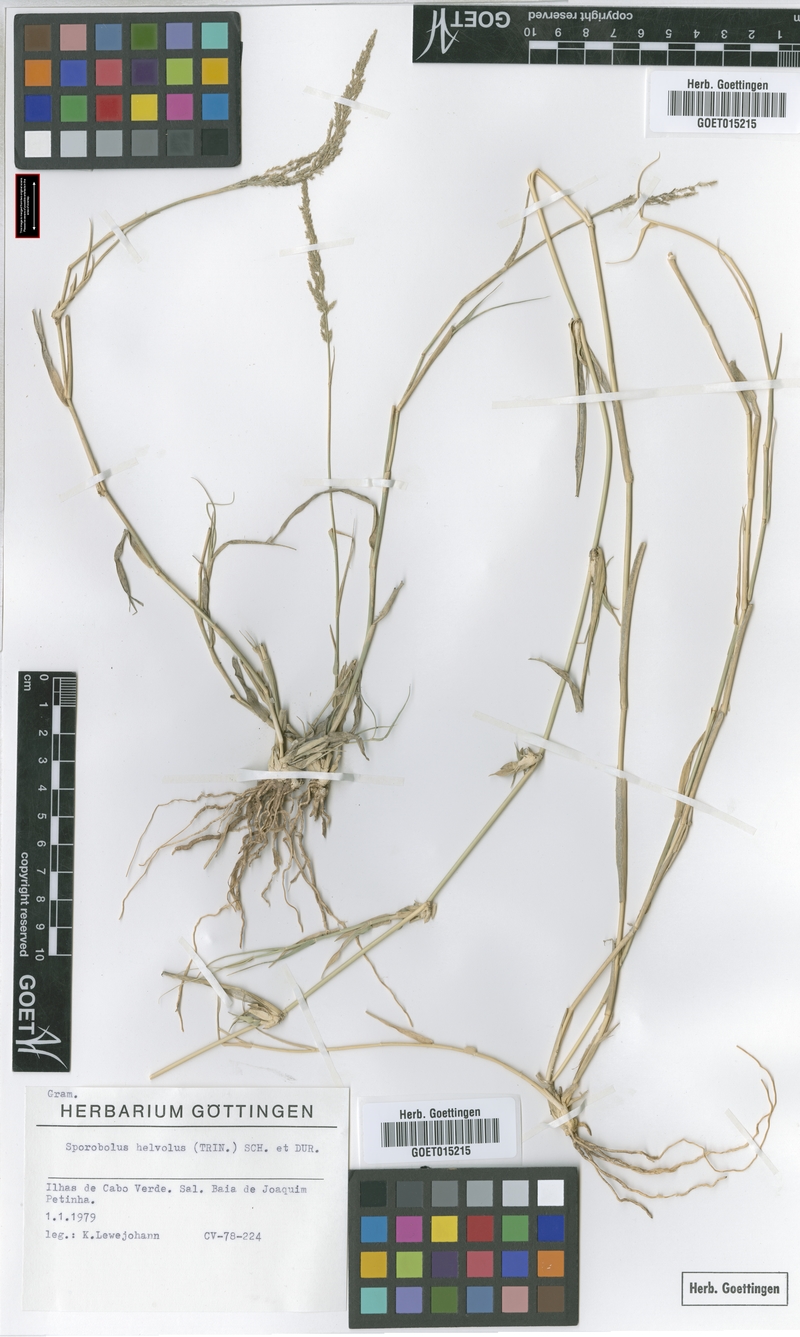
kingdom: Plantae
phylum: Tracheophyta
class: Liliopsida
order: Poales
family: Poaceae
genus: Sporobolus
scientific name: Sporobolus helvolus
